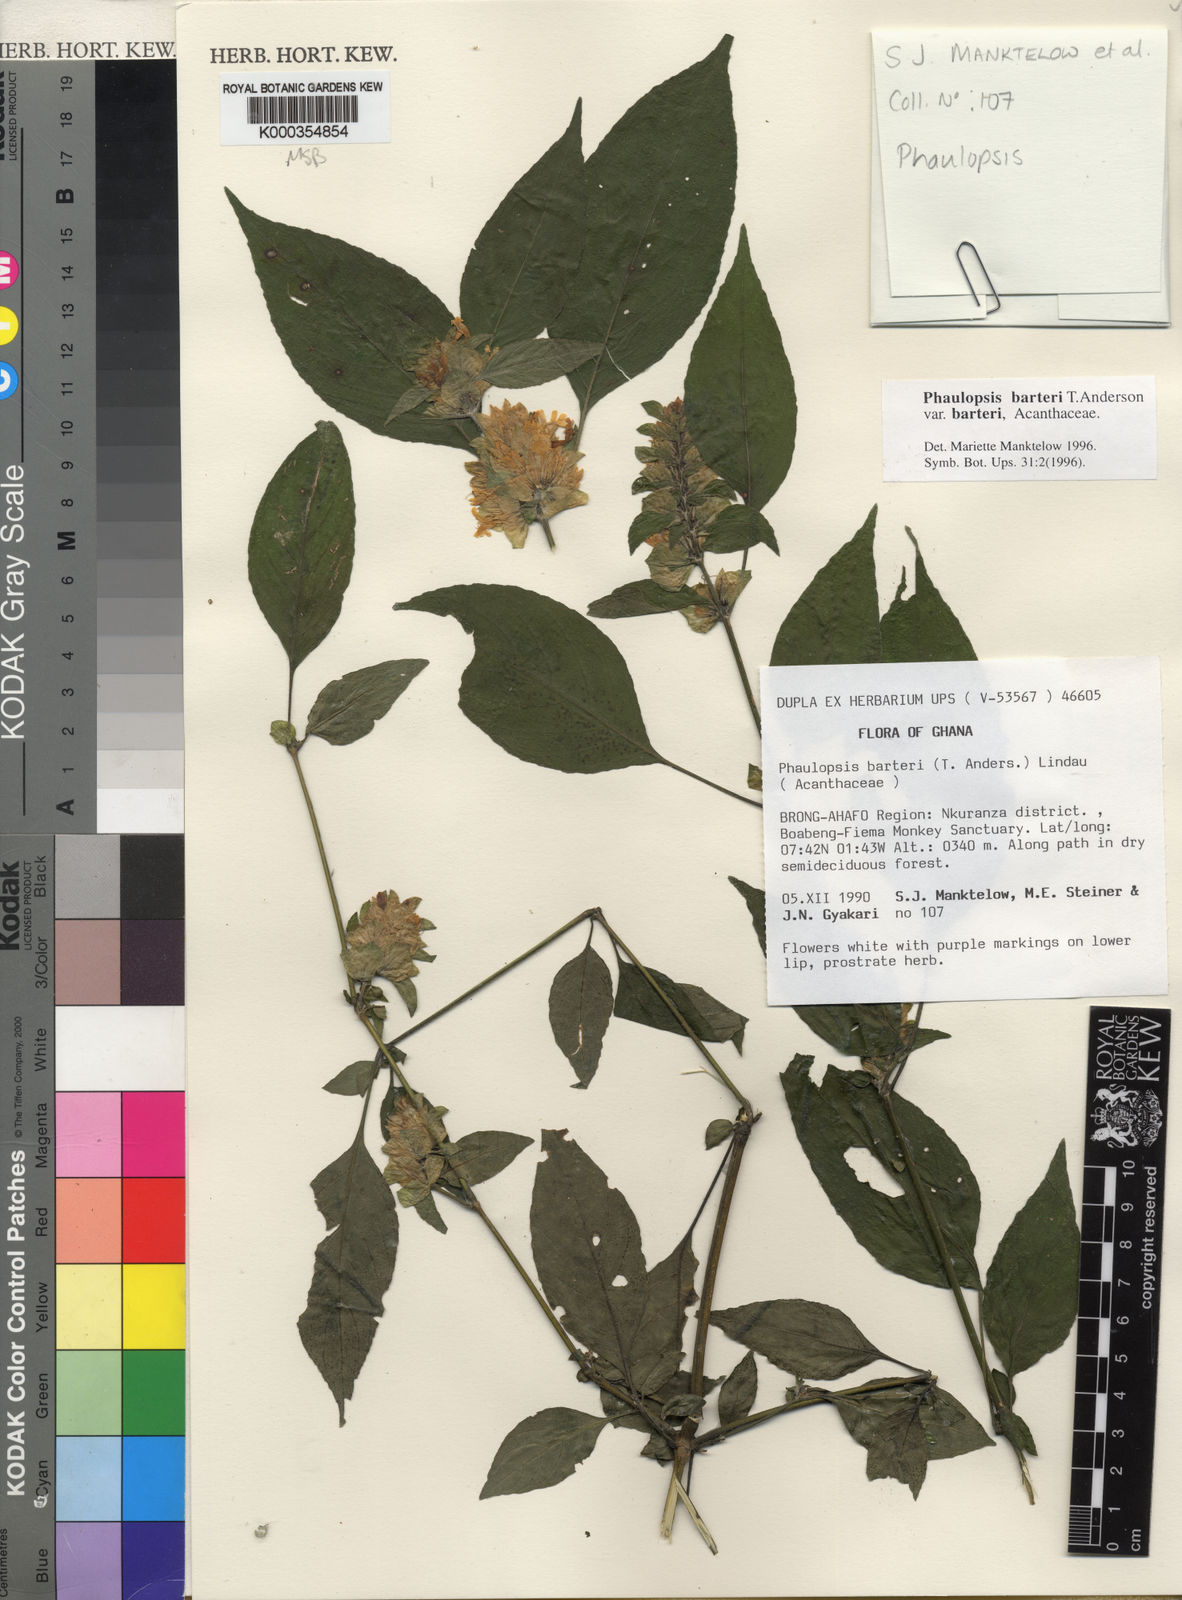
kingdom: Plantae
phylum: Tracheophyta
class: Magnoliopsida
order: Lamiales
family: Acanthaceae
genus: Phaulopsis
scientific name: Phaulopsis barteri
